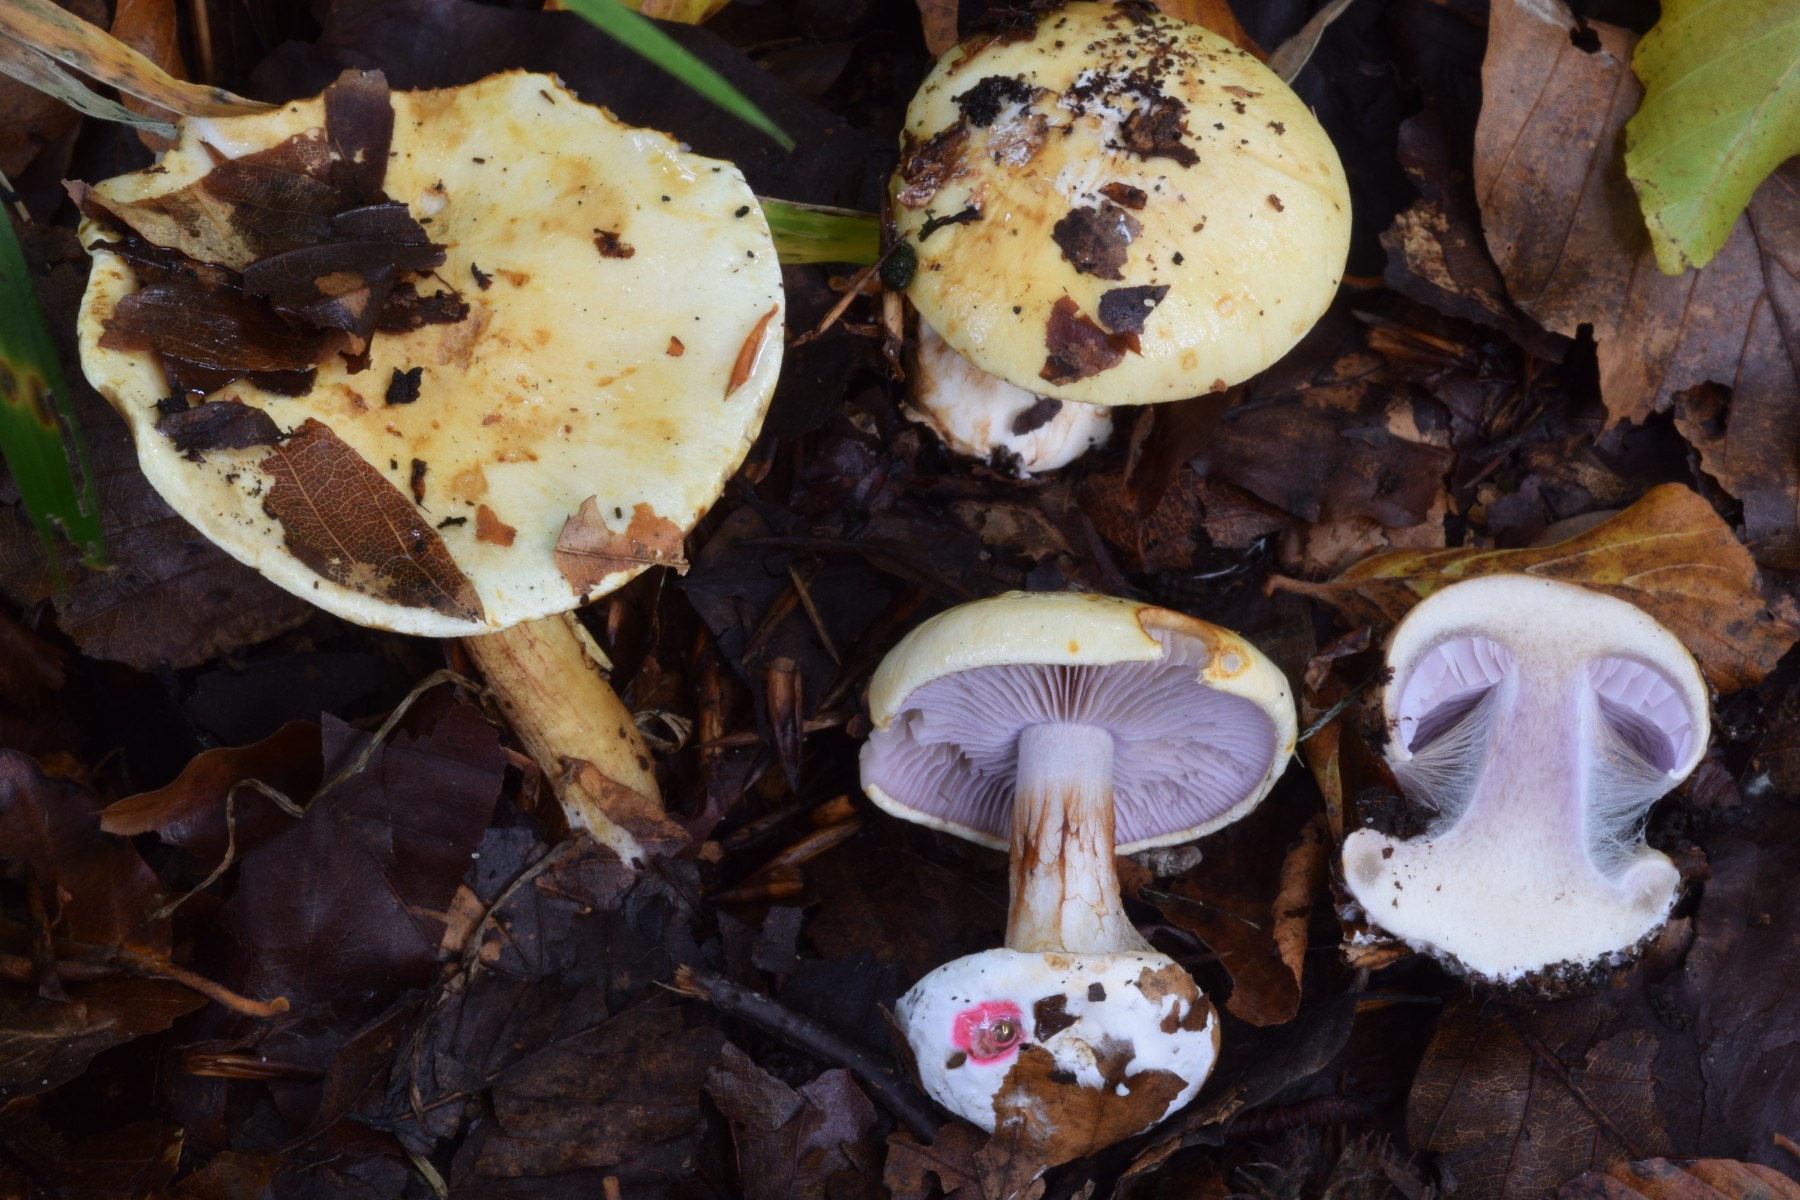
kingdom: Fungi
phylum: Basidiomycota
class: Agaricomycetes
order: Agaricales
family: Cortinariaceae
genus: Calonarius
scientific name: Calonarius catharinae
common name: Katrines slørhat
